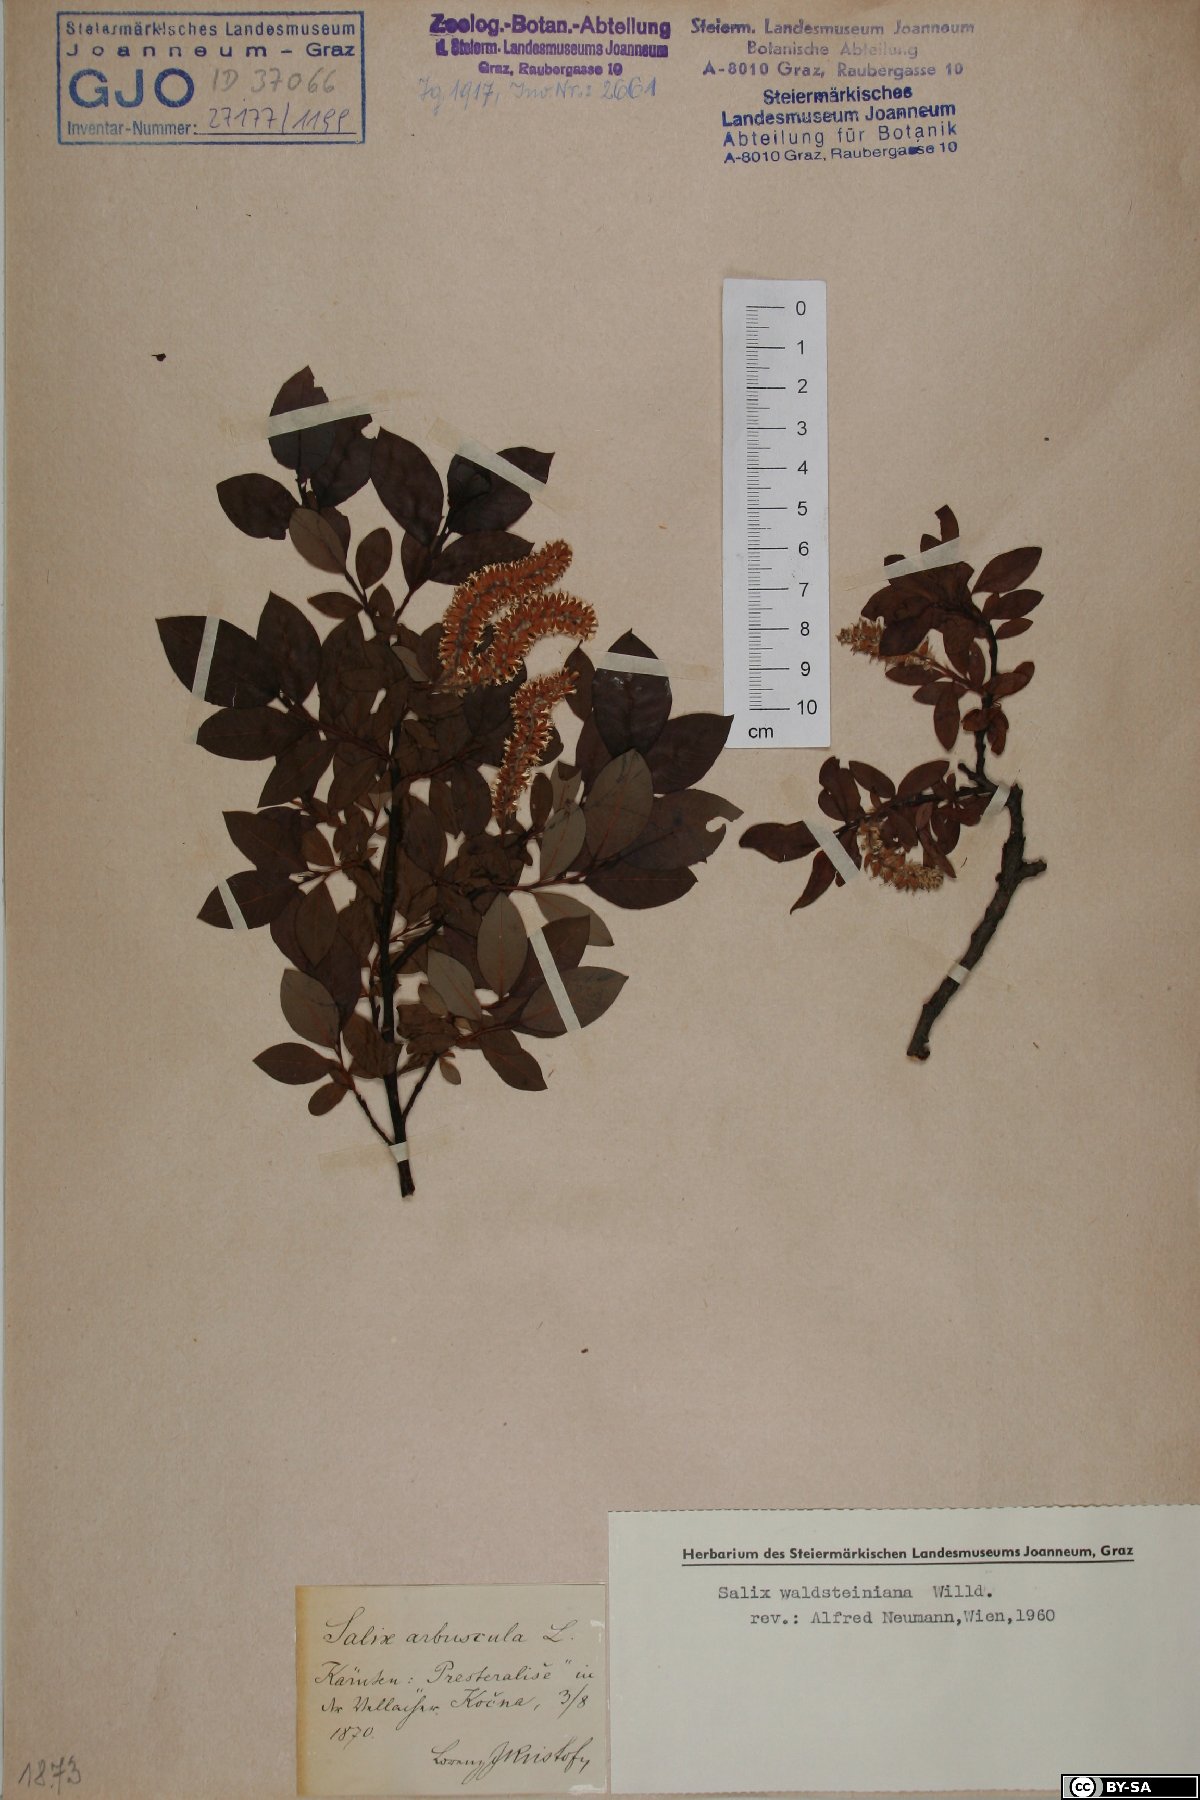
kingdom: Plantae
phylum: Tracheophyta
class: Magnoliopsida
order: Malpighiales
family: Salicaceae
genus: Salix
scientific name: Salix waldsteiniana
